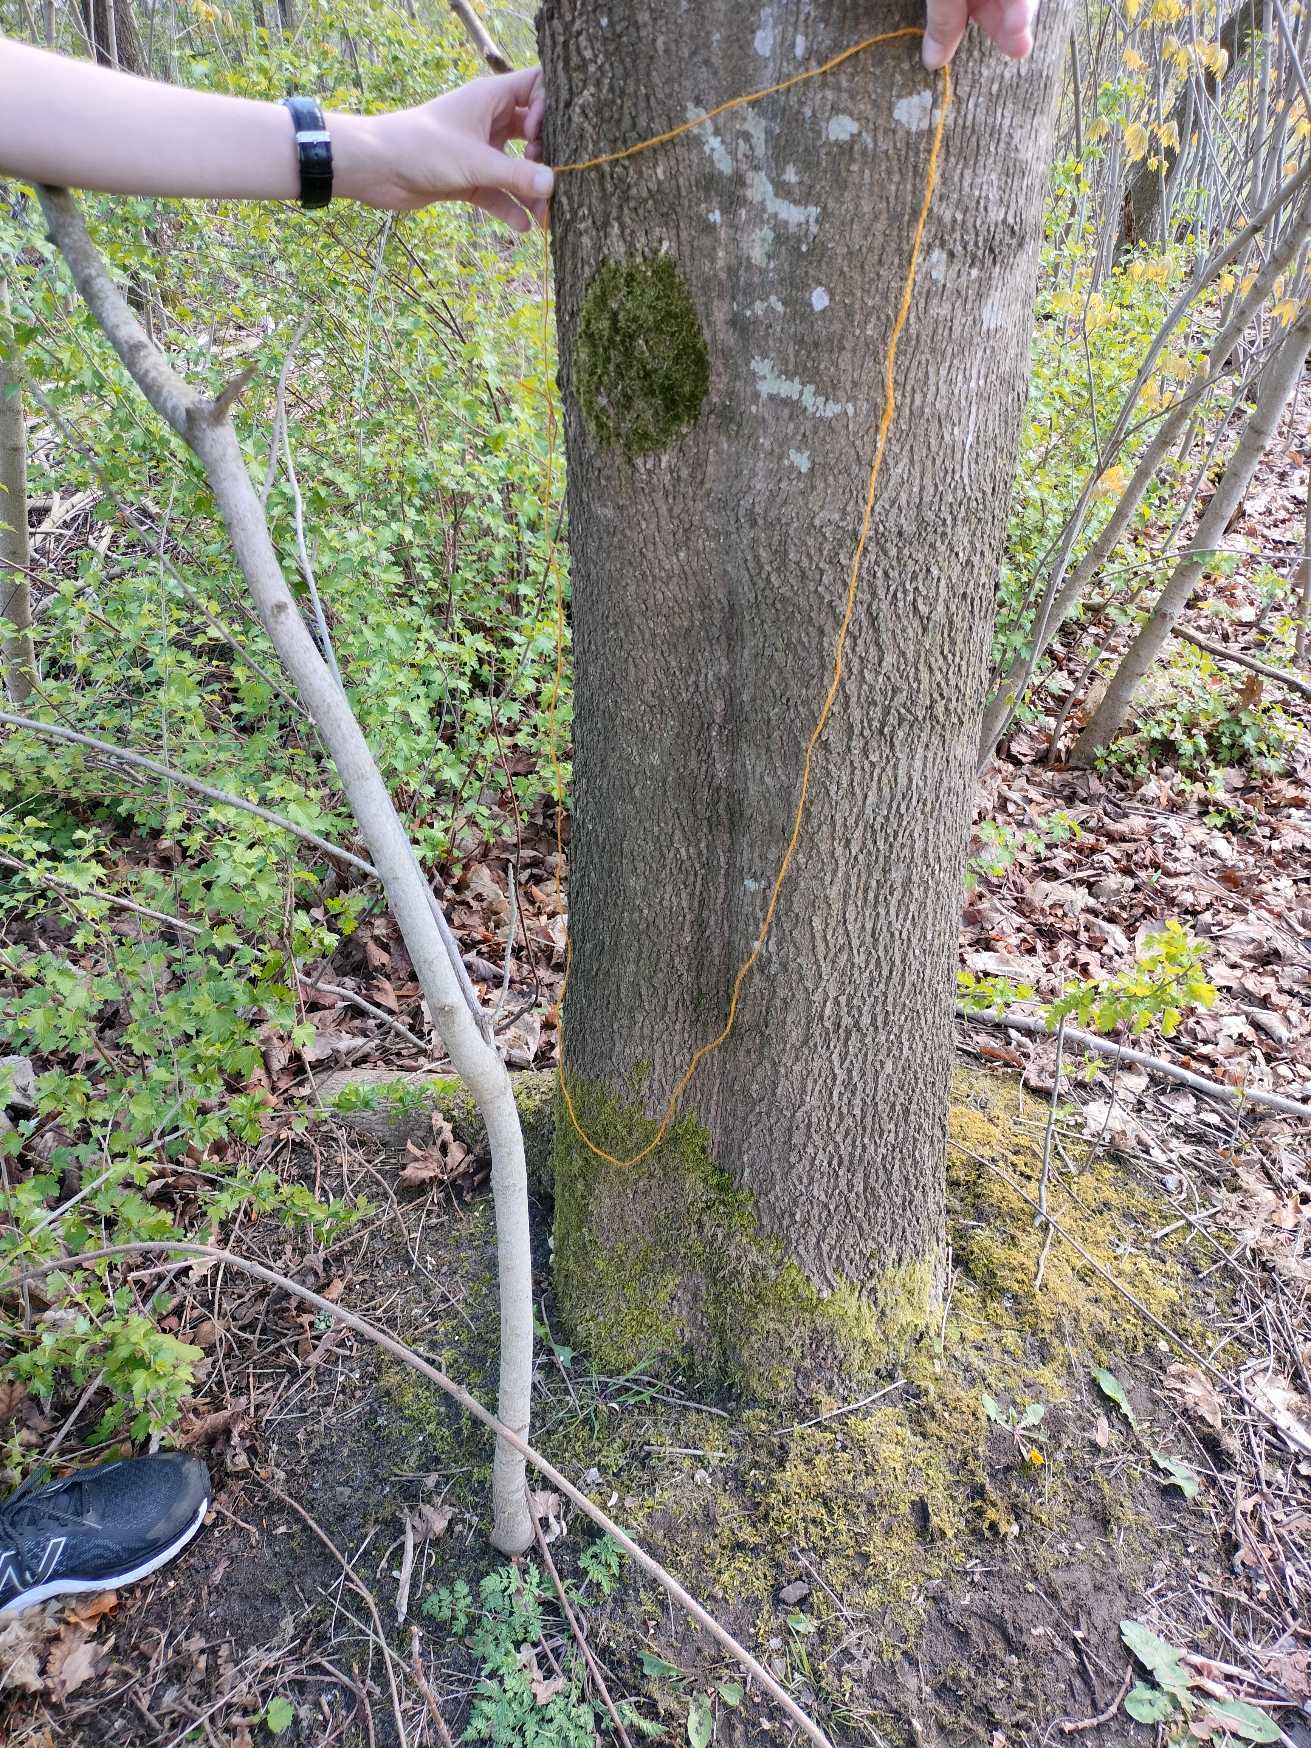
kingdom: Plantae
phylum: Bryophyta
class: Bryopsida
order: Hypnales
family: Hypnaceae
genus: Hypnum
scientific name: Hypnum cupressiforme
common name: Almindelig cypresmos
